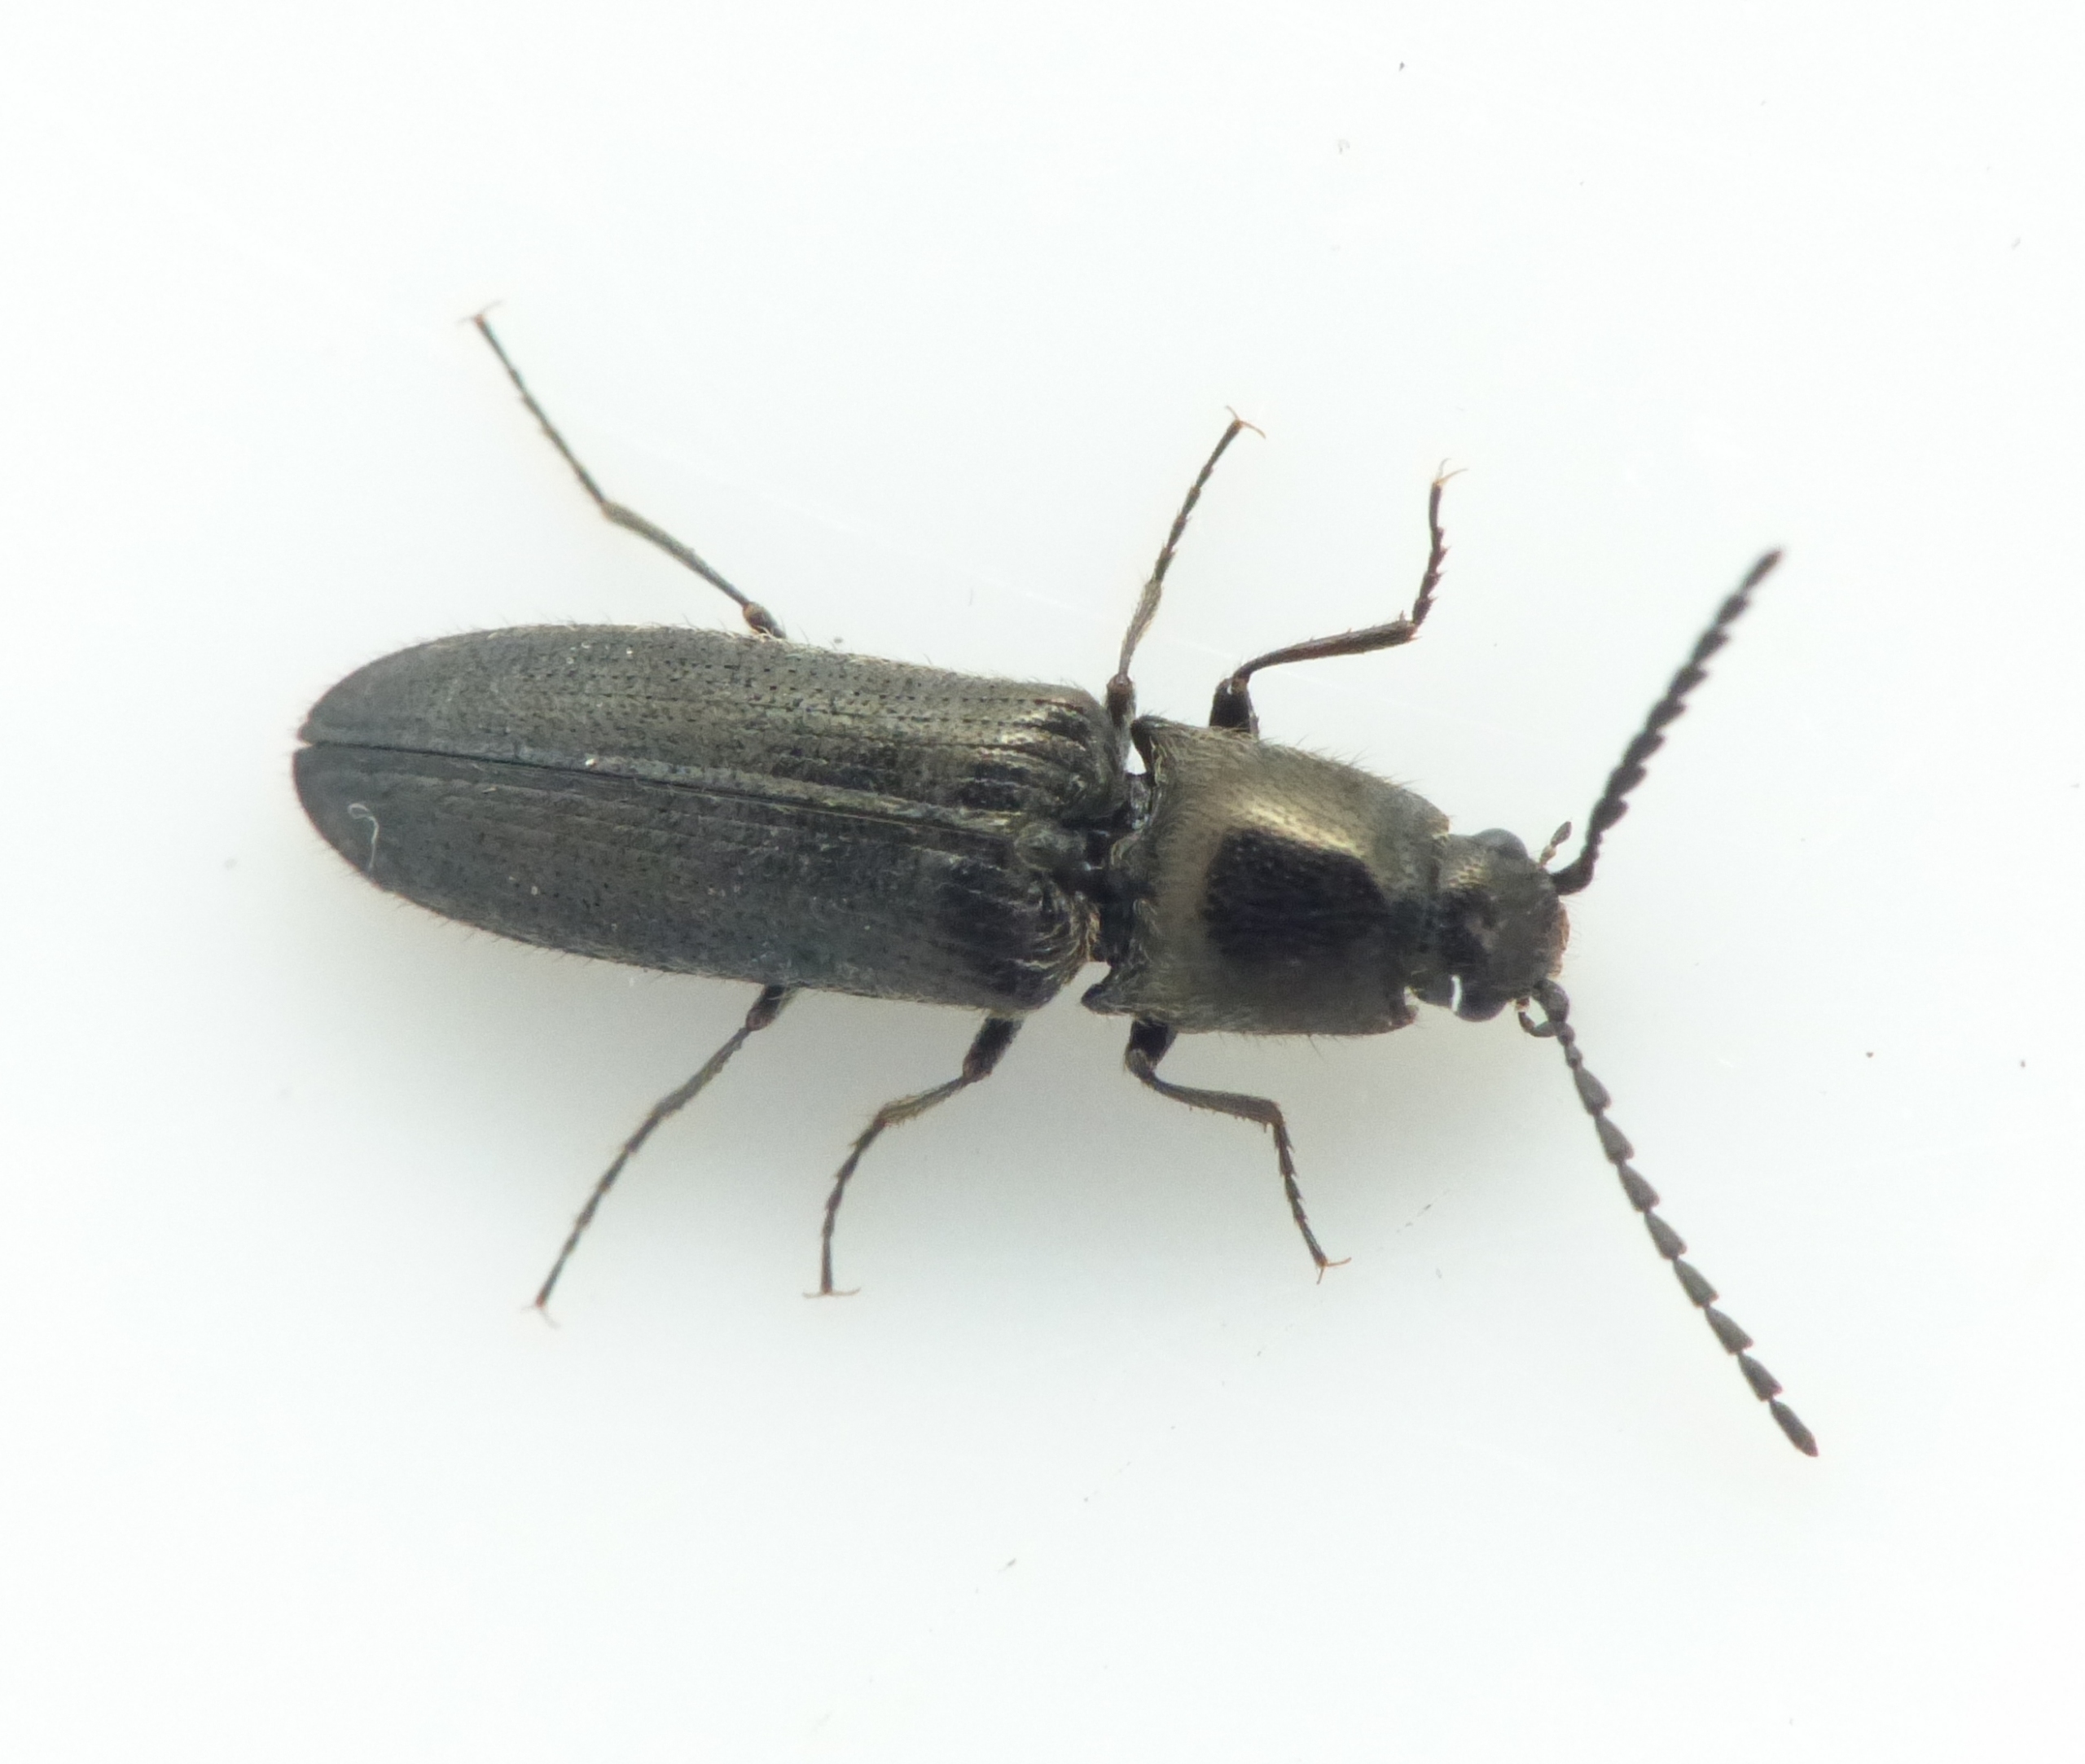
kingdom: Animalia
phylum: Arthropoda
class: Insecta
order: Coleoptera
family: Elateridae
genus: Limonius
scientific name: Limonius minutus
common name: Liden græssmælder
